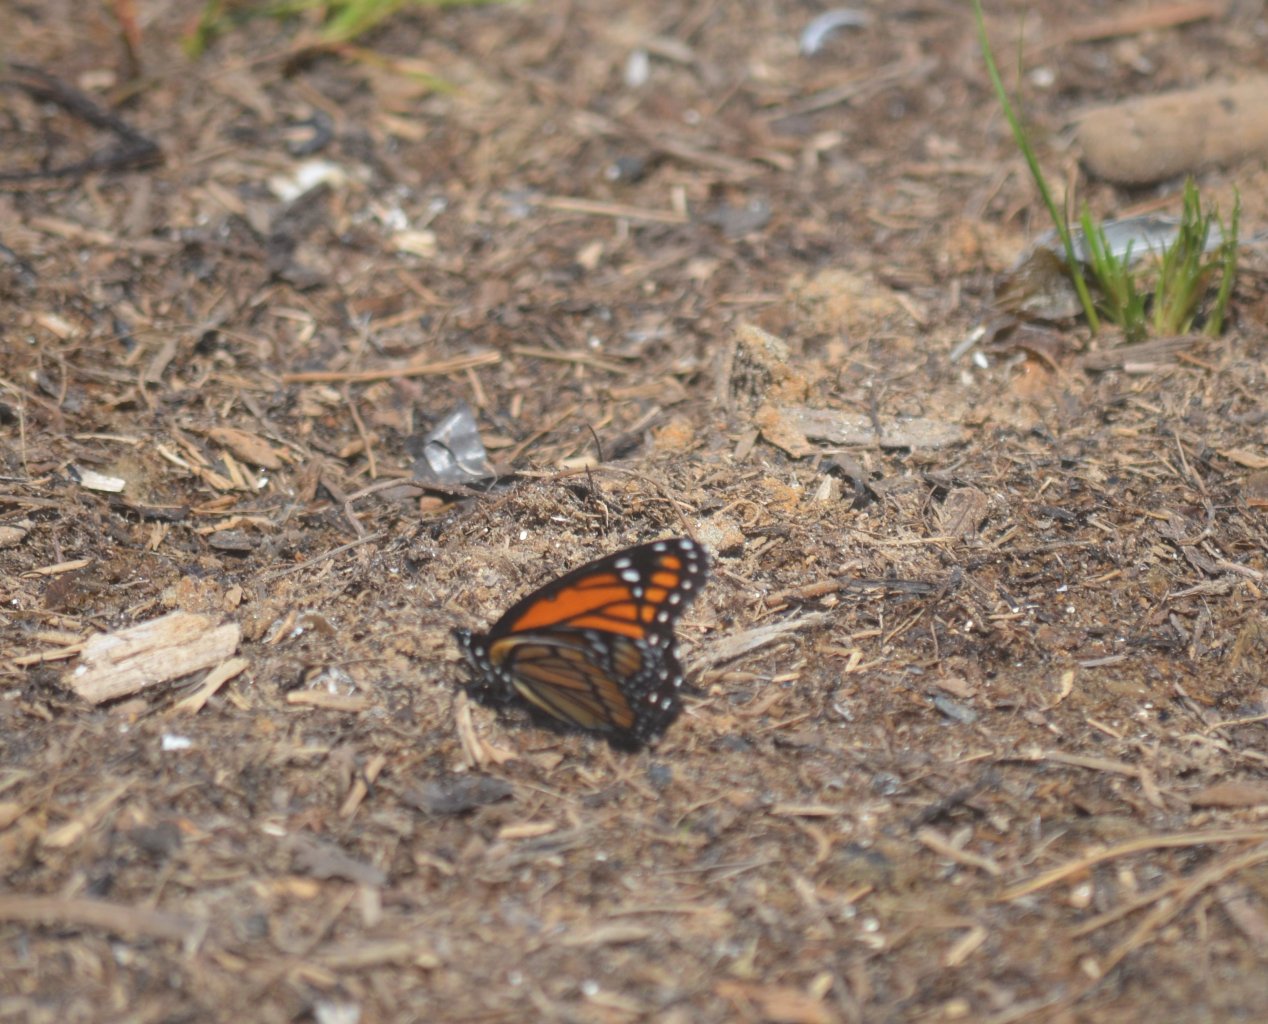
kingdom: Animalia
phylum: Arthropoda
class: Insecta
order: Lepidoptera
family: Nymphalidae
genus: Limenitis
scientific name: Limenitis archippus
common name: Viceroy
